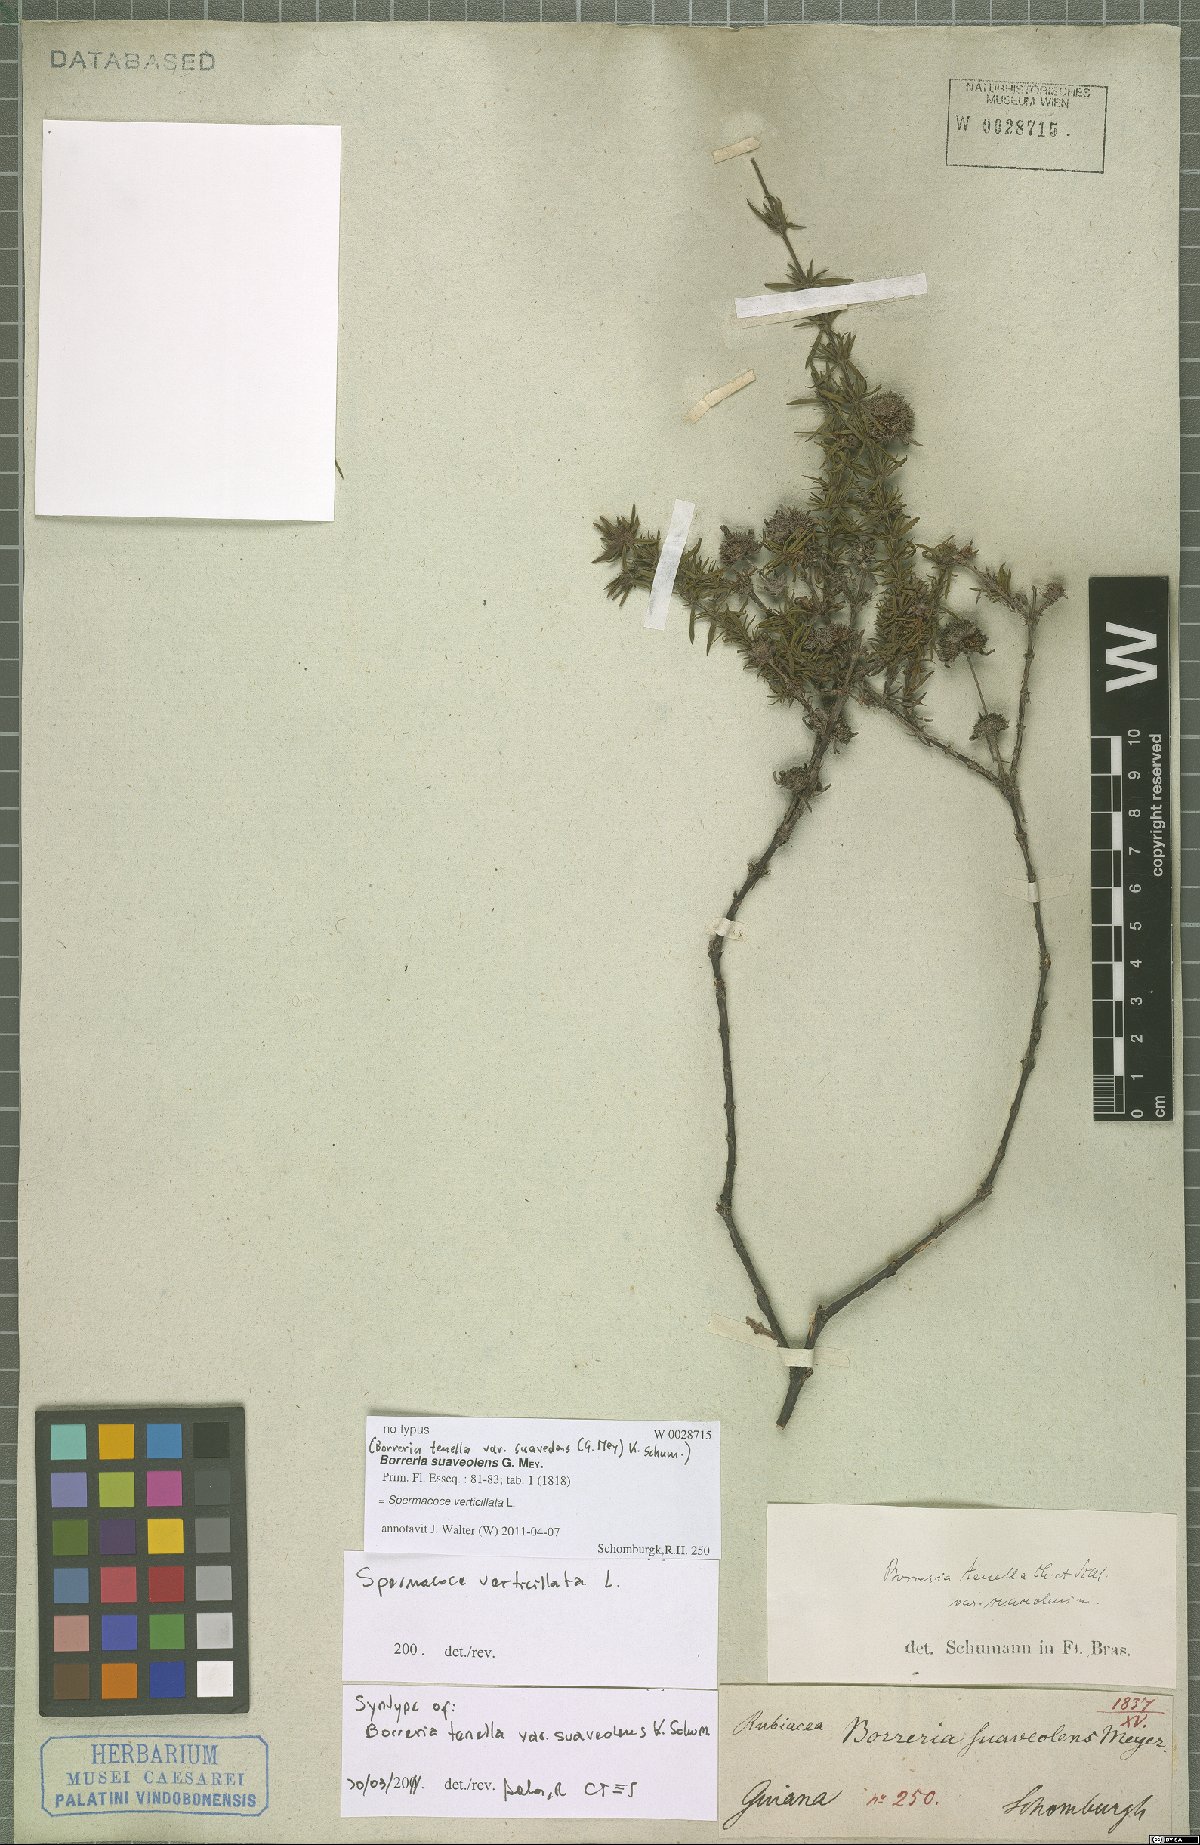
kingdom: Plantae
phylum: Tracheophyta
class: Magnoliopsida
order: Gentianales
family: Rubiaceae
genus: Spermacoce
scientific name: Spermacoce verticillata
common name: Shrubby false buttonweed
